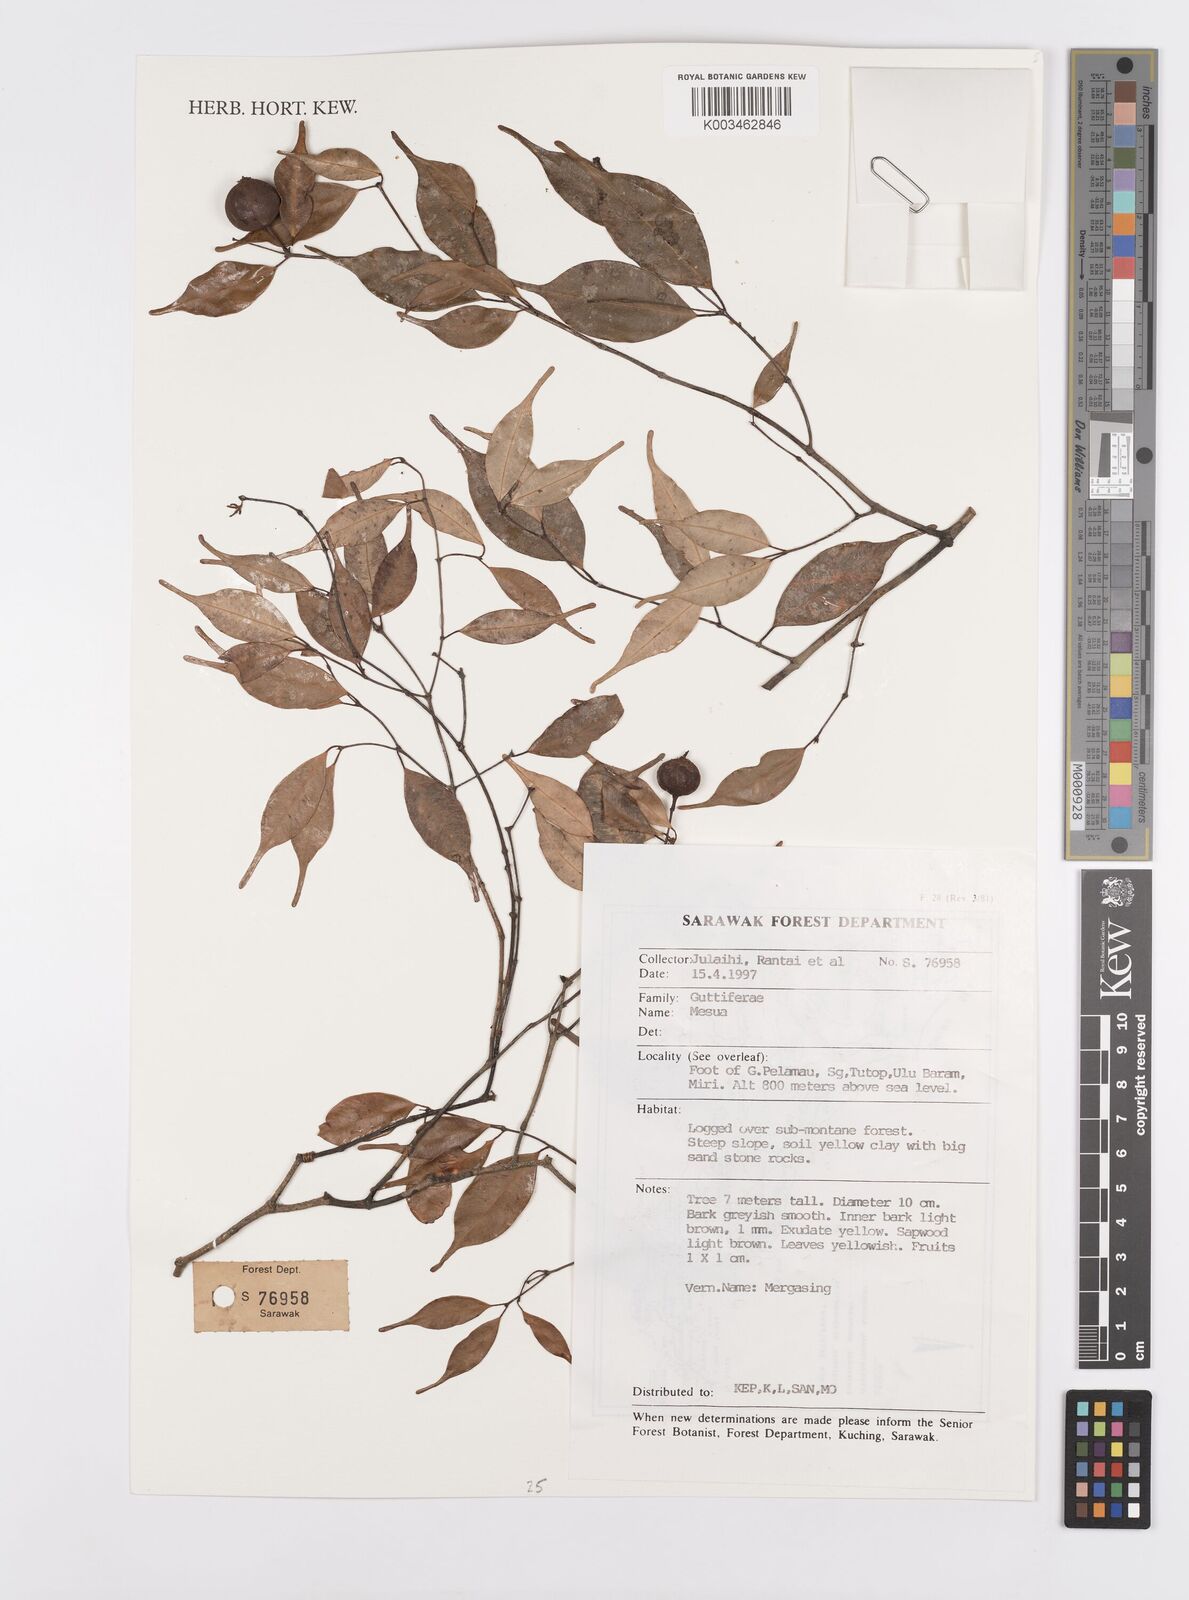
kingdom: Plantae
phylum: Tracheophyta
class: Magnoliopsida
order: Malpighiales
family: Calophyllaceae
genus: Mesua
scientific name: Mesua
